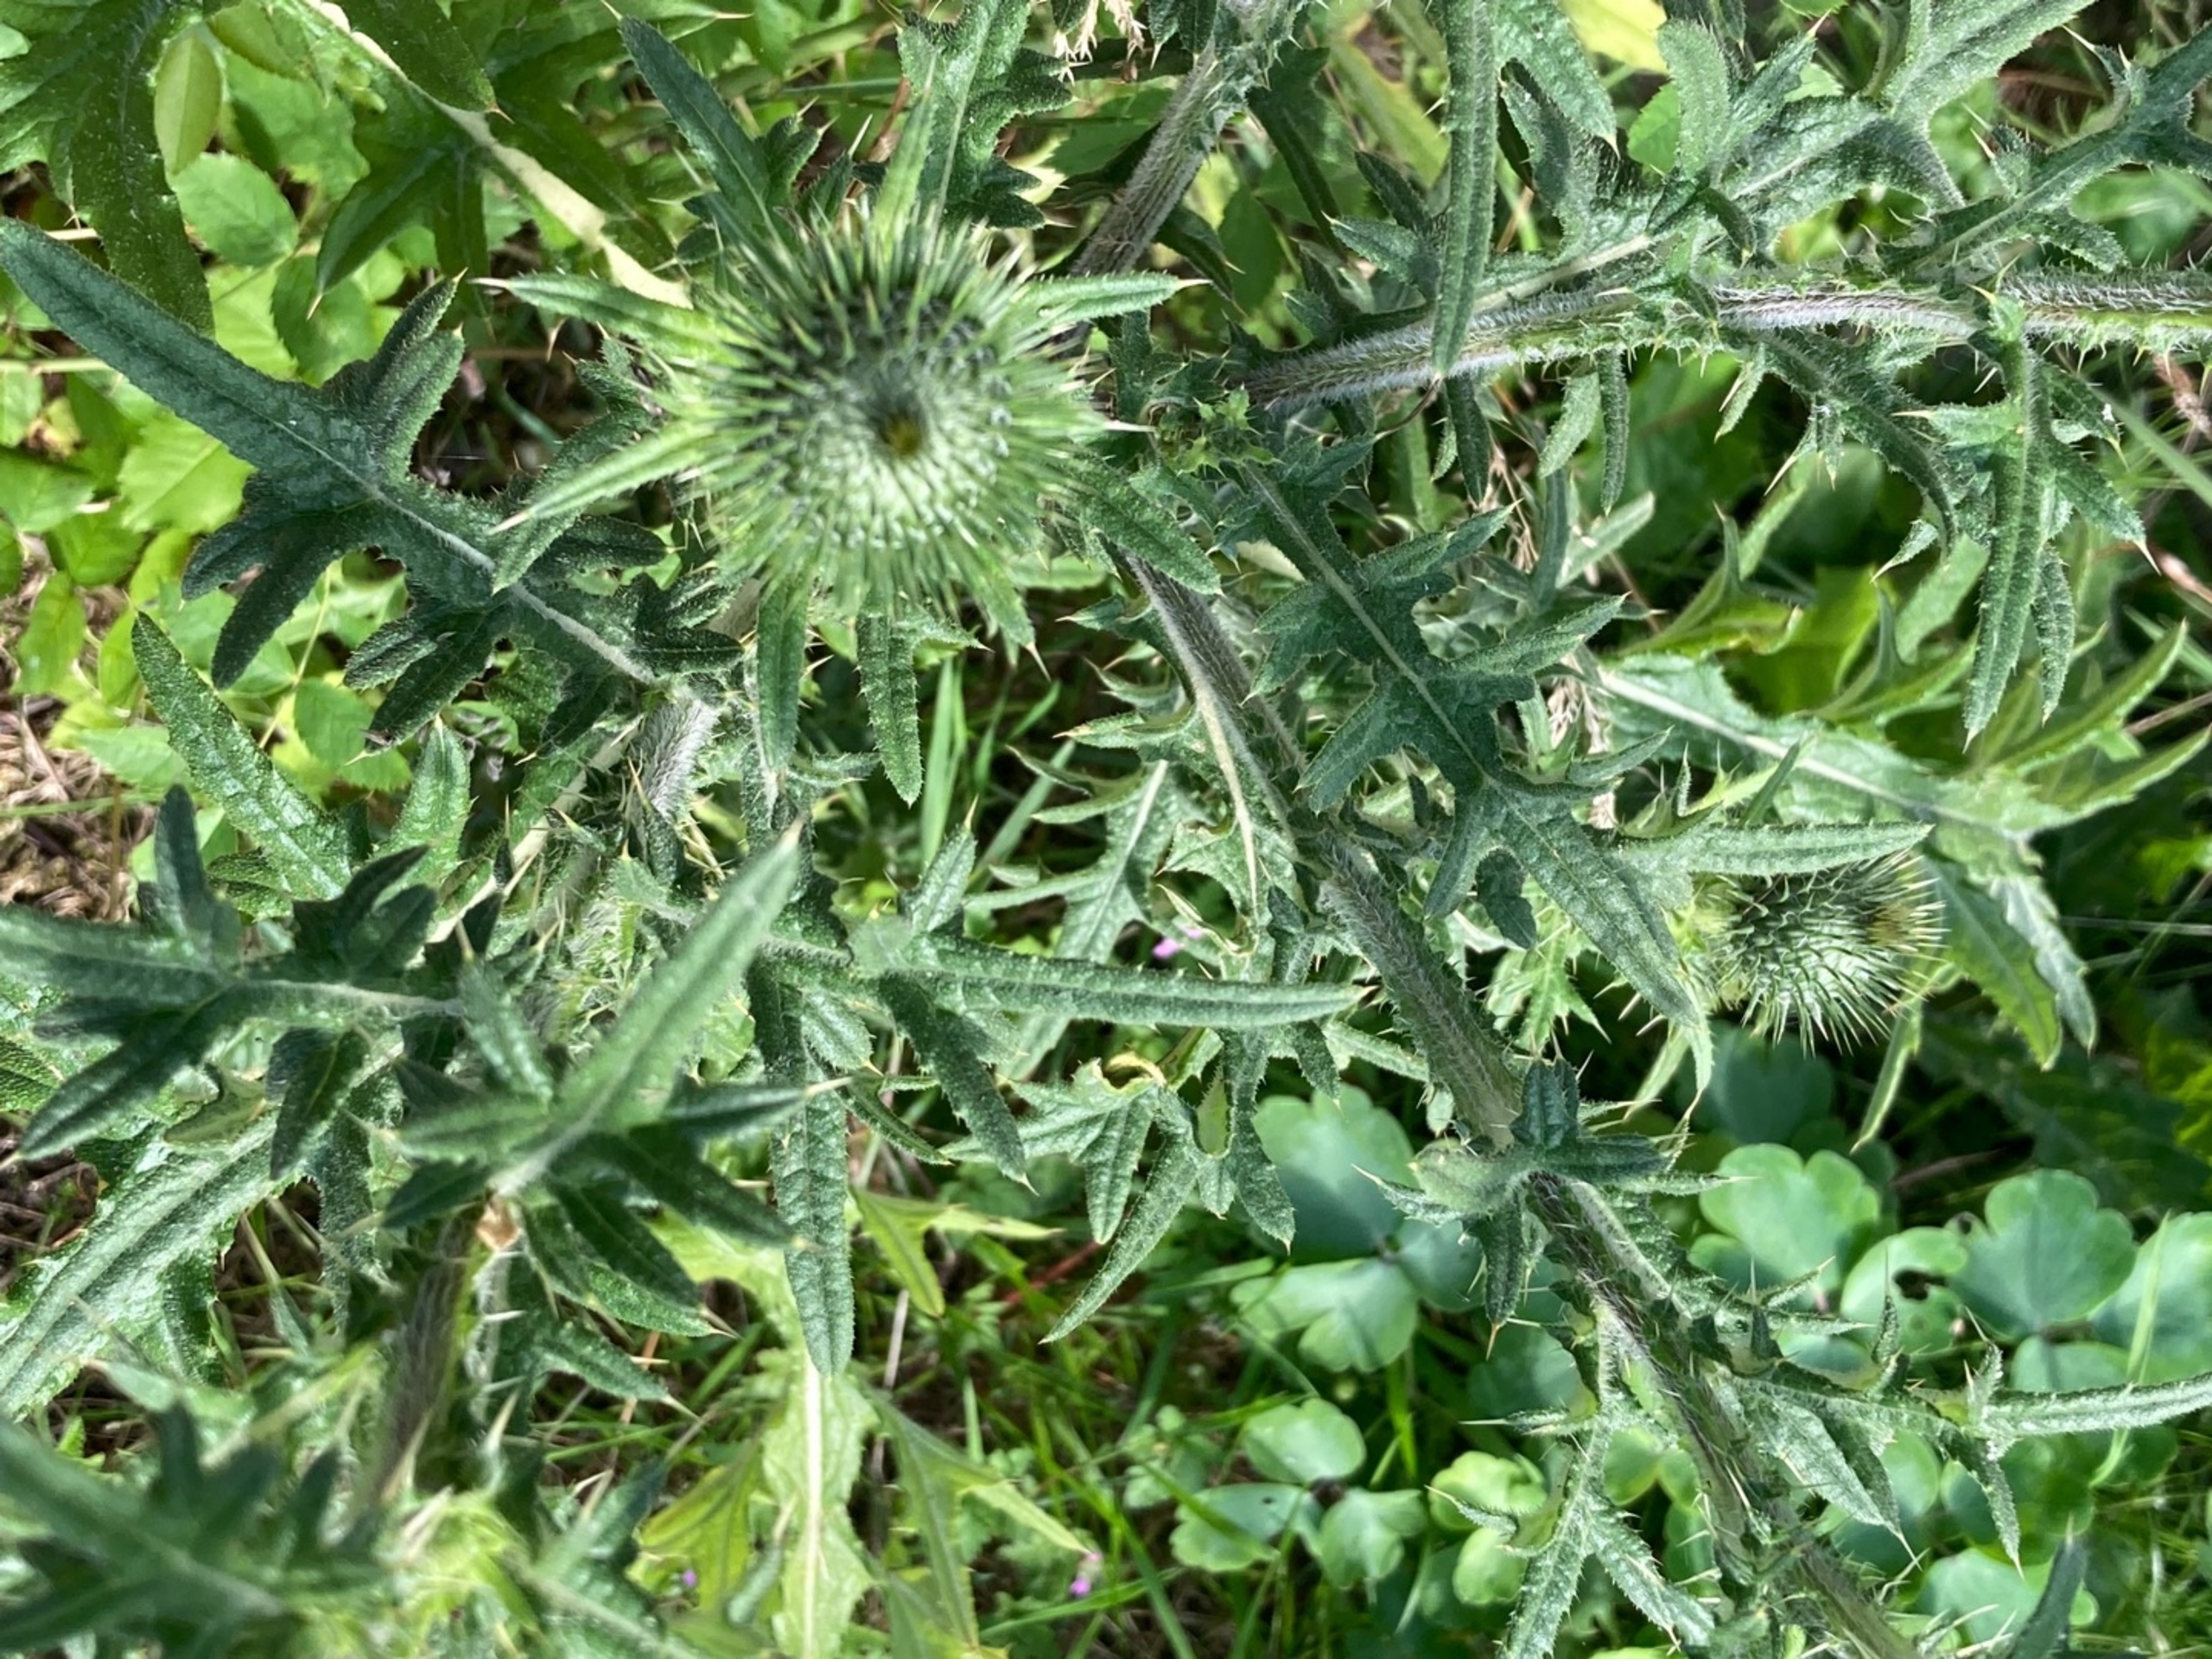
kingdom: Plantae
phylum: Tracheophyta
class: Magnoliopsida
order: Asterales
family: Asteraceae
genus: Cirsium
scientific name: Cirsium vulgare
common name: Horse-tidsel
